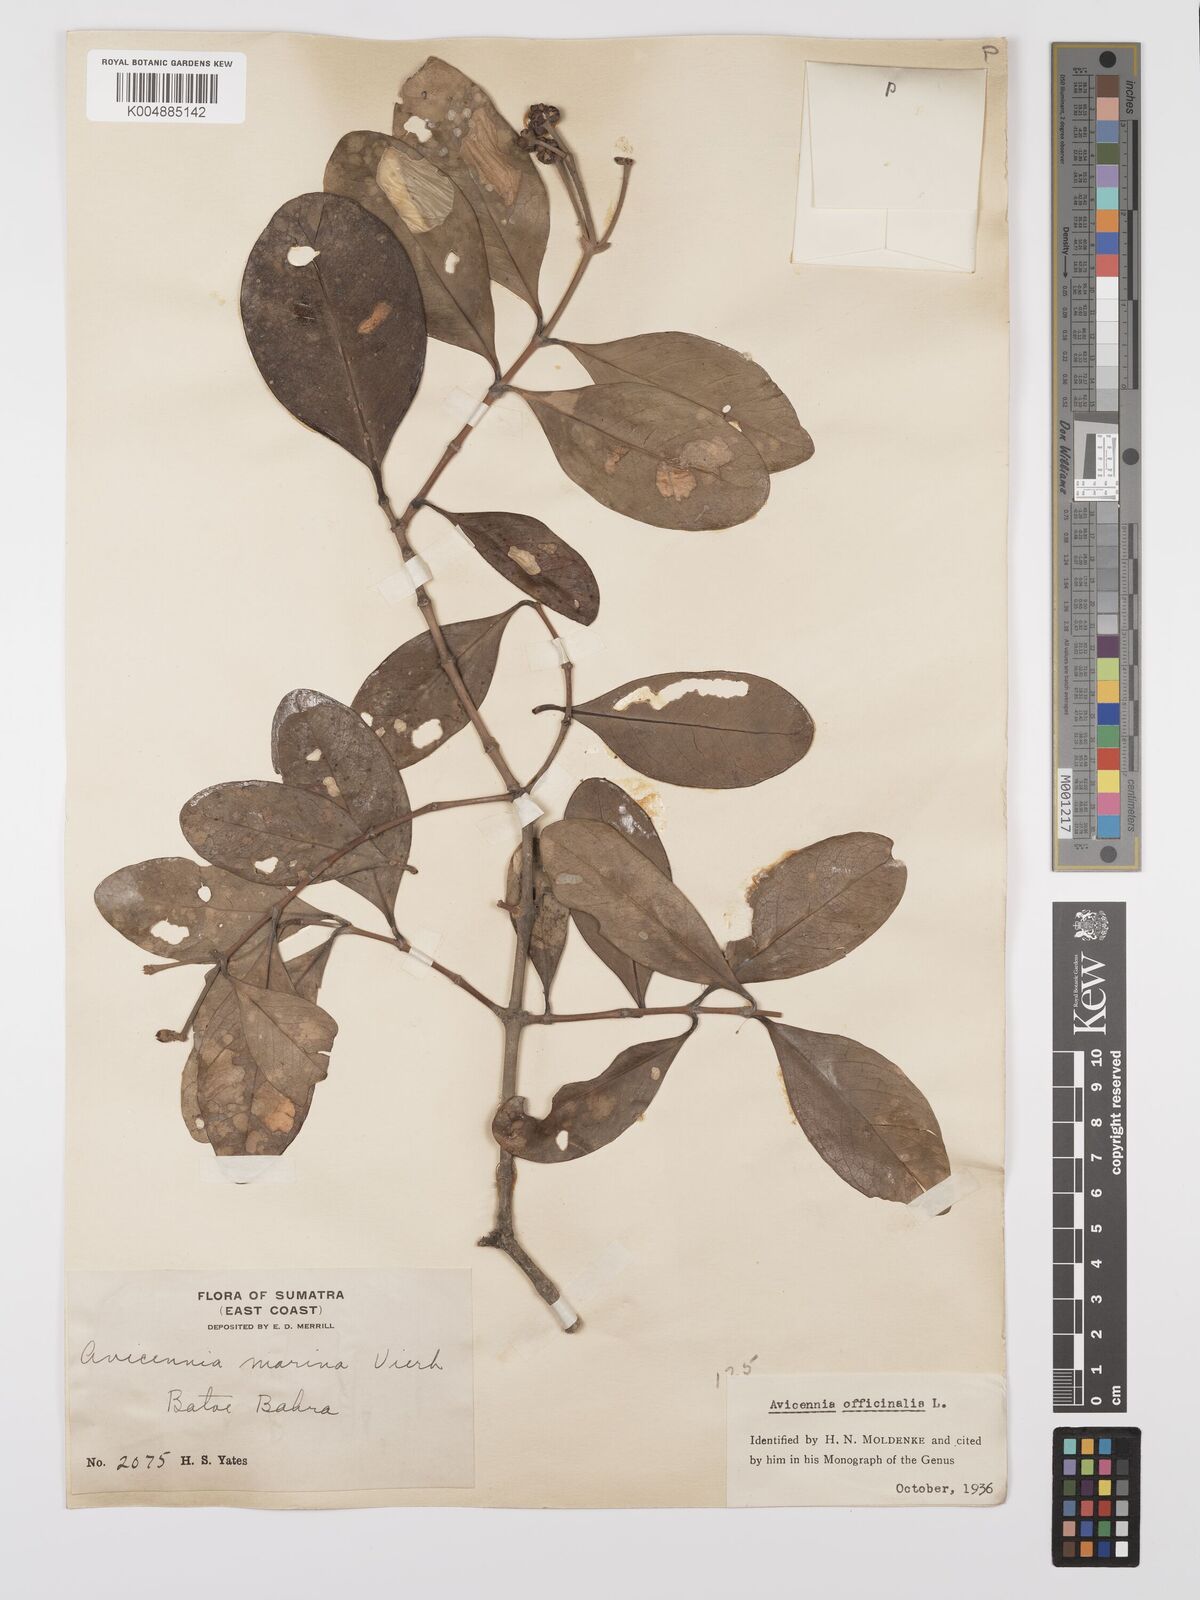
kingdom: Plantae
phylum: Tracheophyta
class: Magnoliopsida
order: Lamiales
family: Acanthaceae
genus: Avicennia
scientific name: Avicennia officinalis
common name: Baen
